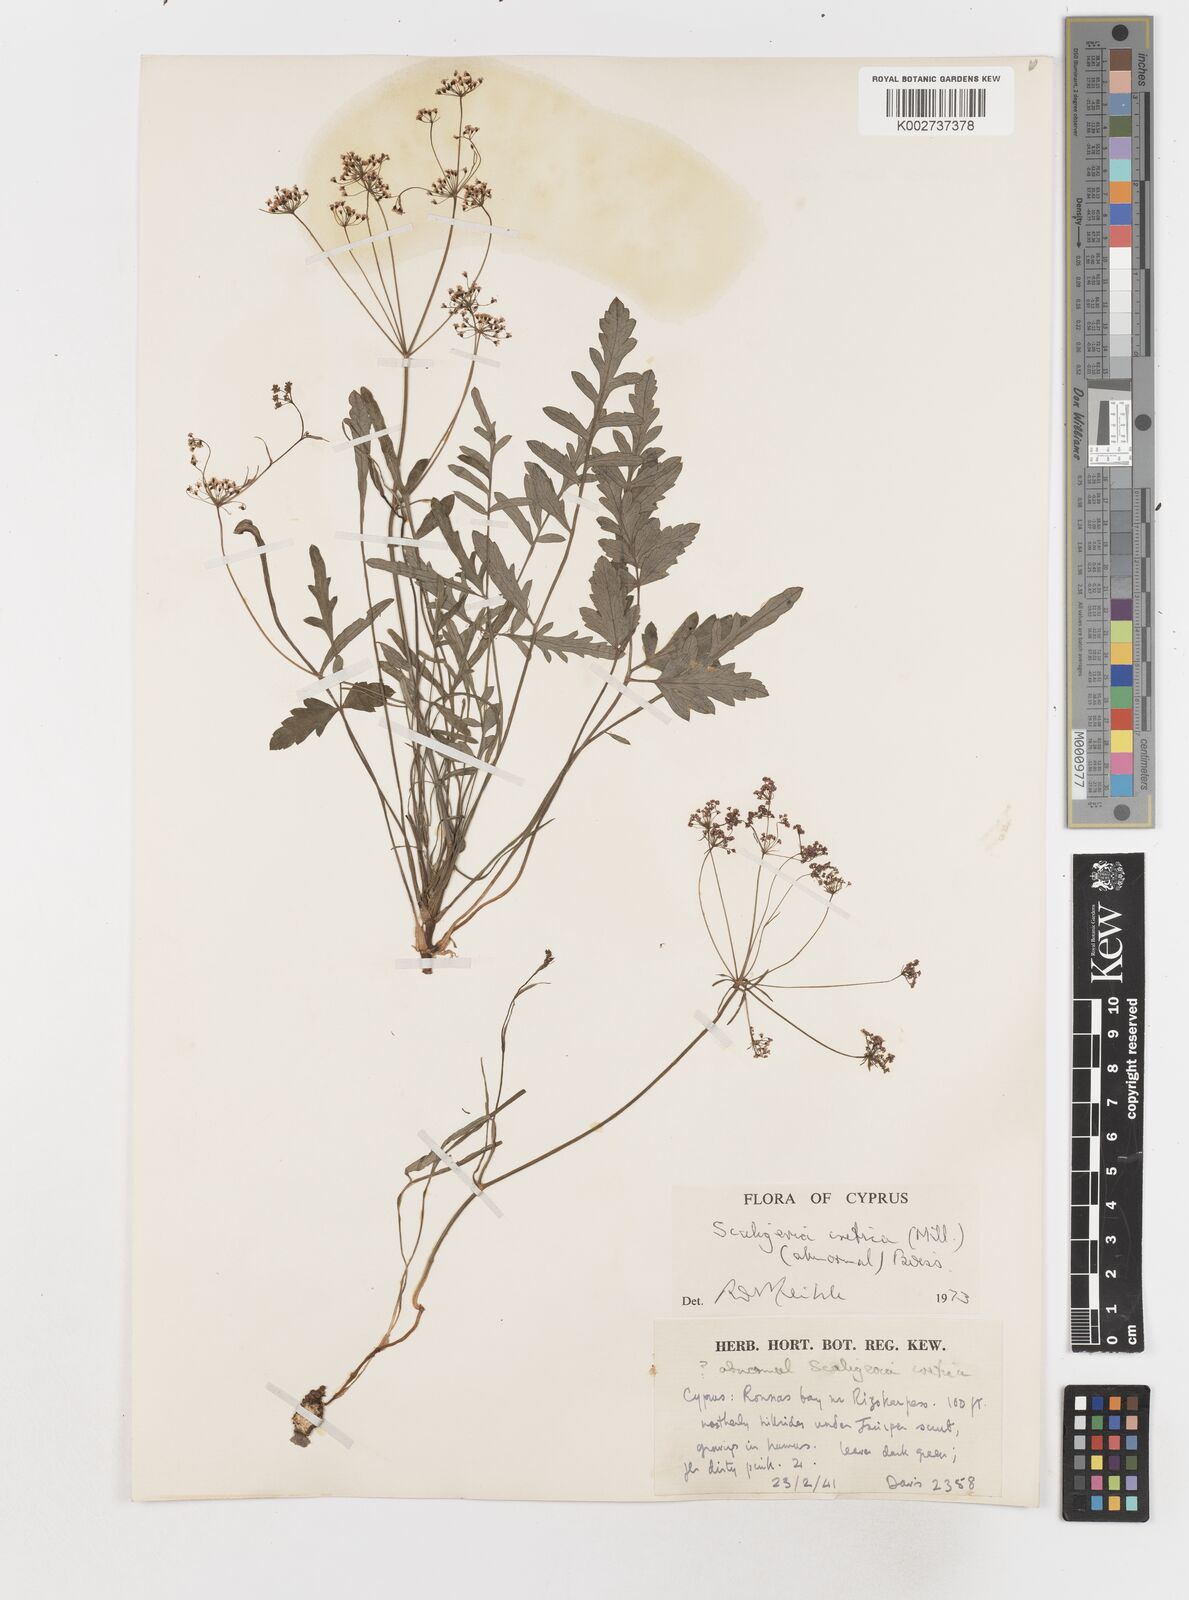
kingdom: Plantae
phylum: Tracheophyta
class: Magnoliopsida
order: Apiales
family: Apiaceae
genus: Scaligeria
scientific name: Scaligeria
